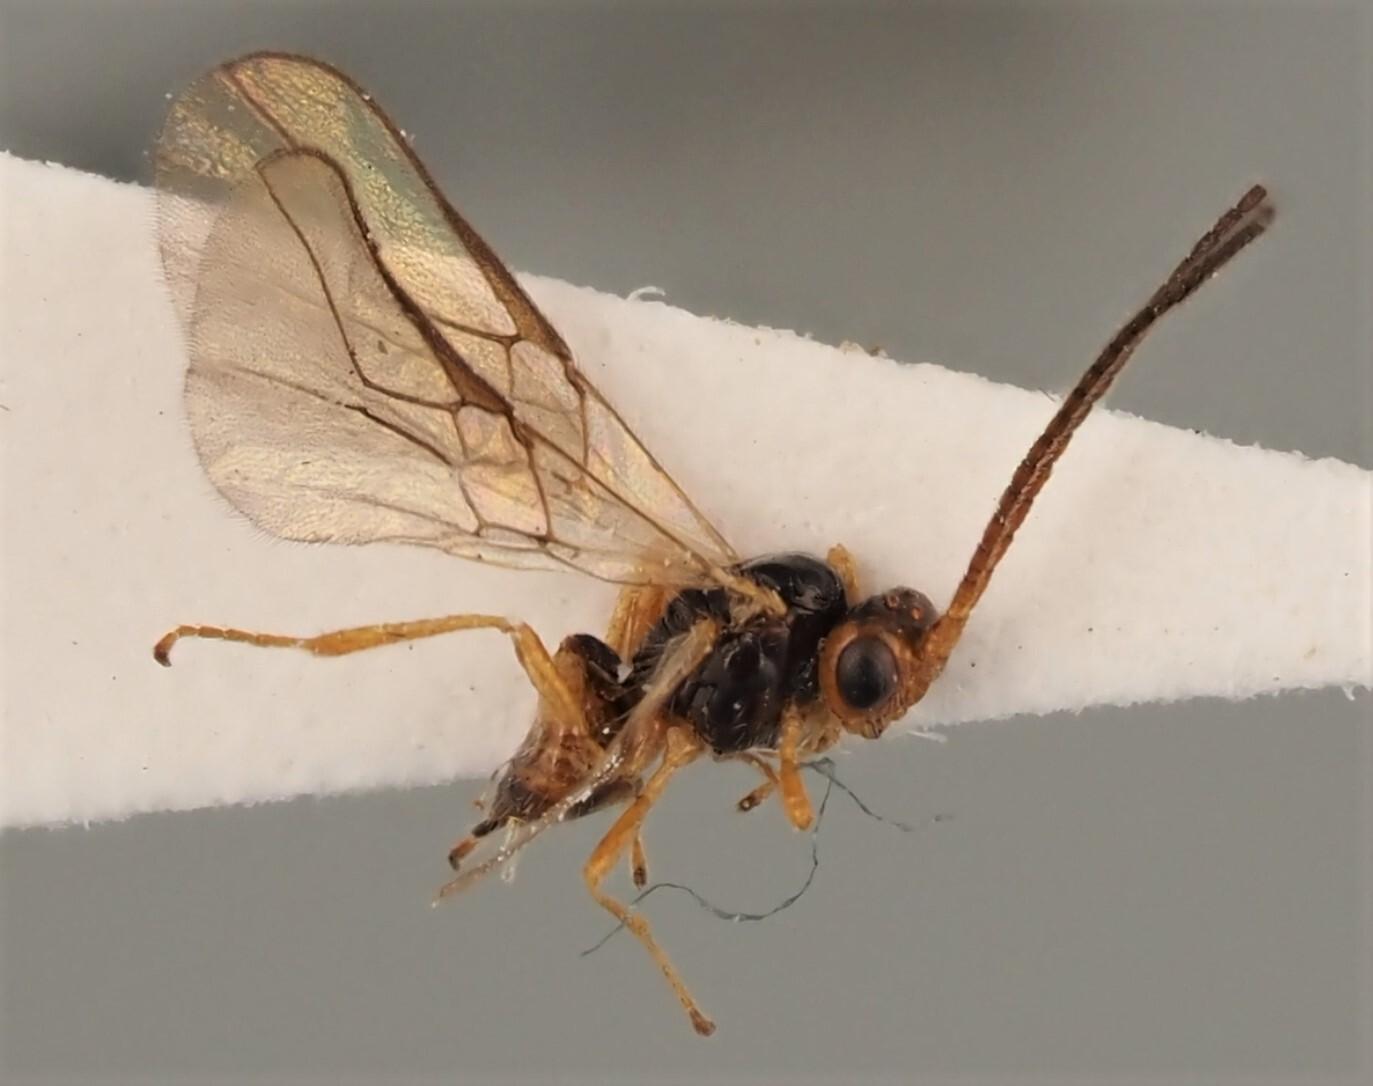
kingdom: Animalia
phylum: Arthropoda
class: Insecta
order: Hymenoptera
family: Braconidae
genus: Opius
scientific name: Opius pulchriceps
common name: Braconid wasp
